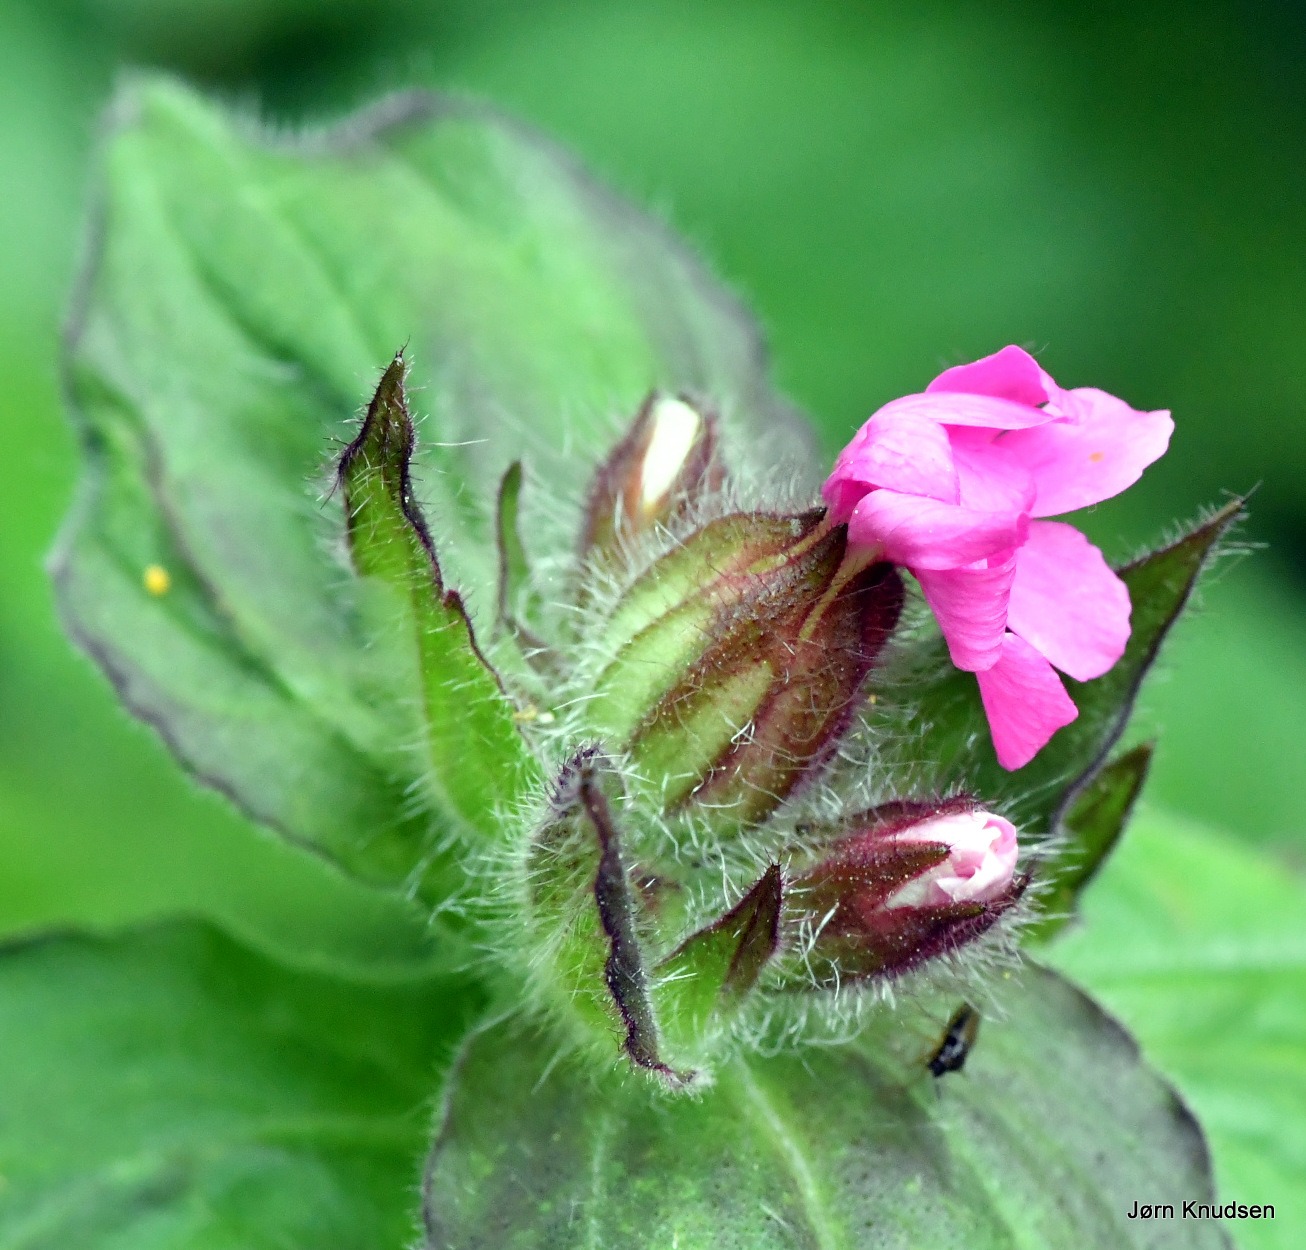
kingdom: Plantae
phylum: Tracheophyta
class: Magnoliopsida
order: Caryophyllales
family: Caryophyllaceae
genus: Silene
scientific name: Silene dioica
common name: Dagpragtstjerne
